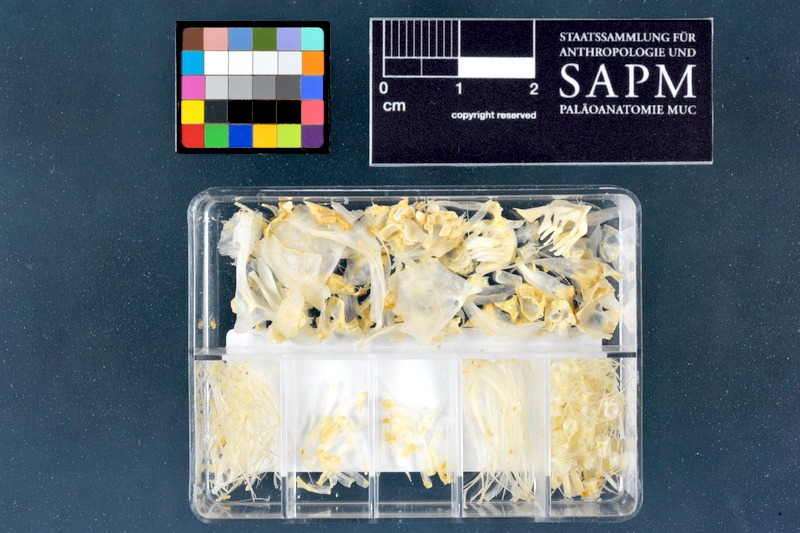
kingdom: Animalia
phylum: Chordata
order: Cypriniformes
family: Cyprinidae
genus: Chondrostoma
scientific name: Chondrostoma regium
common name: Mesopotamian nase
